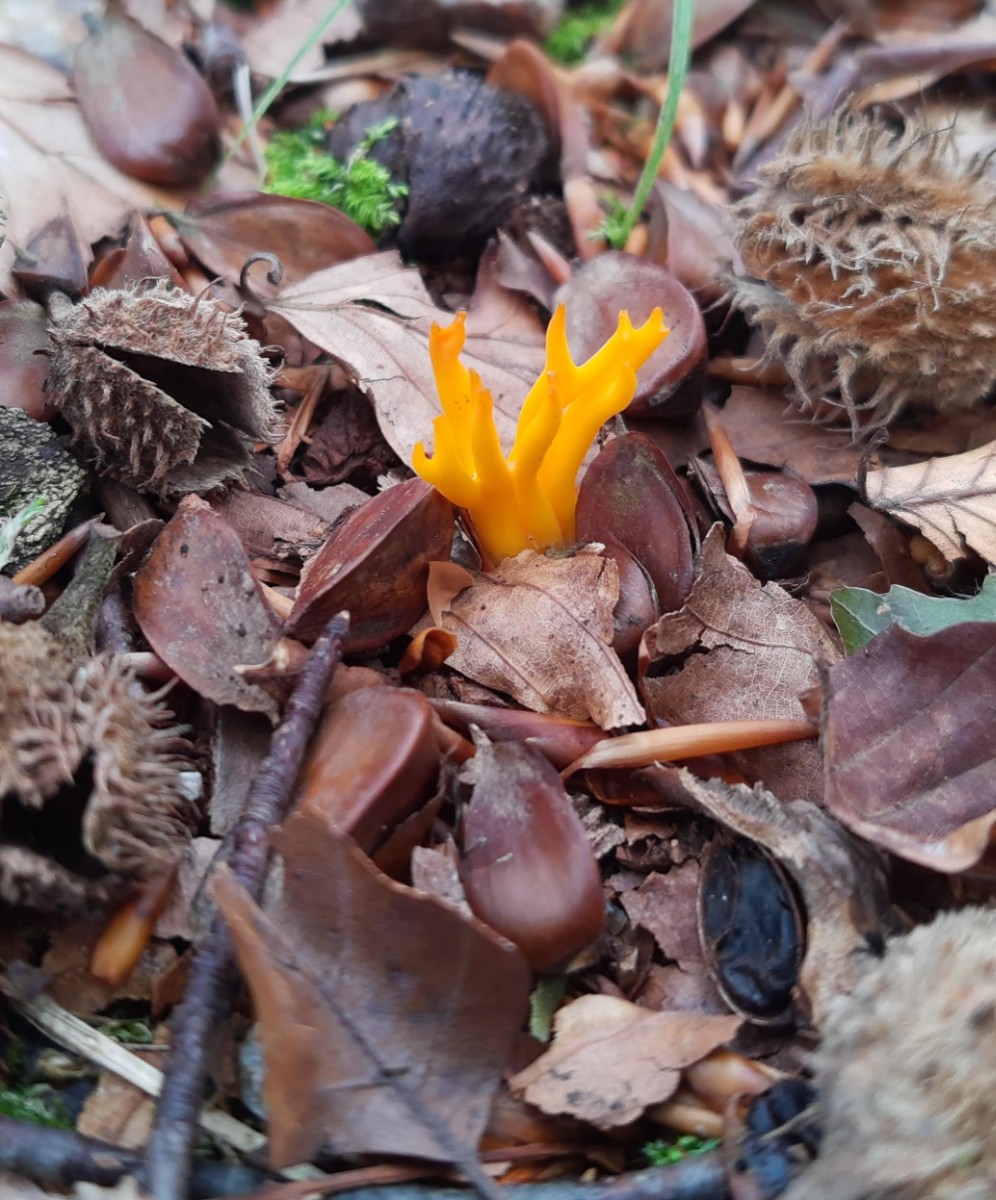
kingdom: Fungi
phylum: Basidiomycota
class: Dacrymycetes
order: Dacrymycetales
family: Dacrymycetaceae
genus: Calocera
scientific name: Calocera viscosa
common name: almindelig guldgaffel
